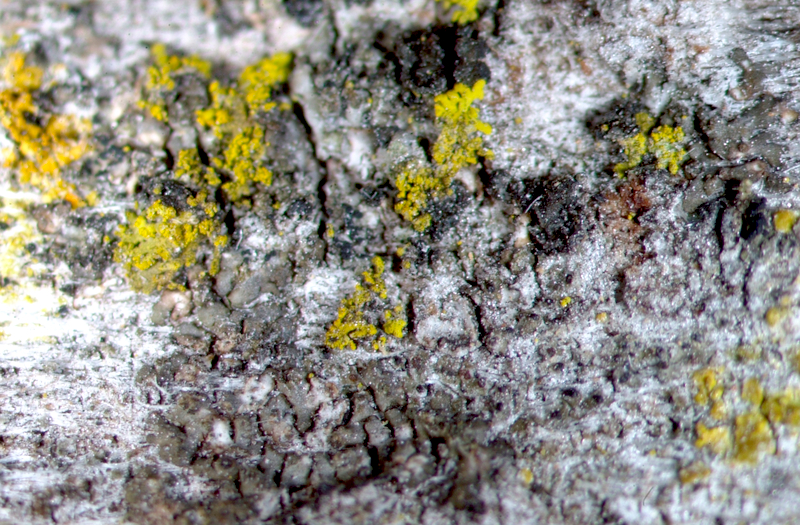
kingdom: Fungi
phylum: Ascomycota
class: Lecanoromycetes
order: Teloschistales
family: Teloschistaceae
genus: Athallia
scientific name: Athallia alnetorum
